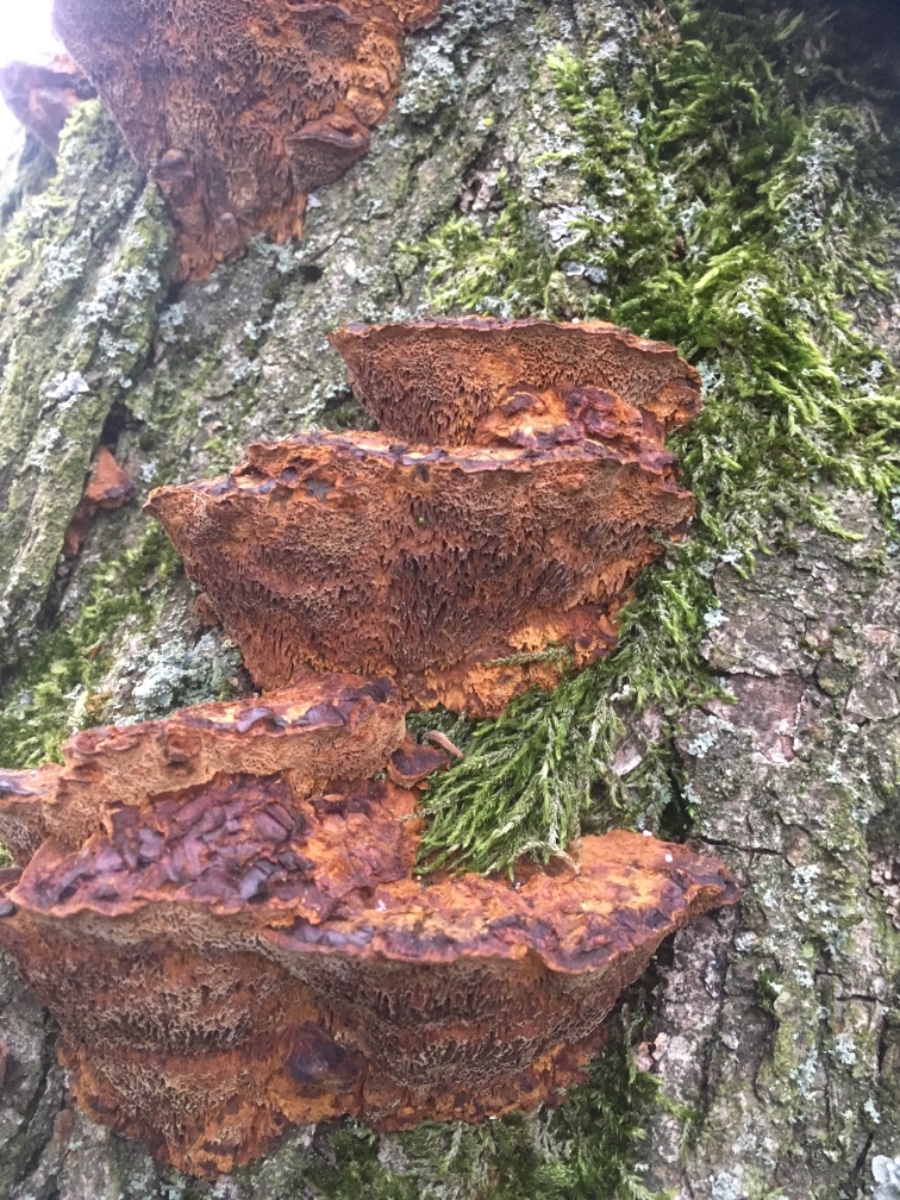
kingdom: Fungi
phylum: Basidiomycota
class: Agaricomycetes
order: Hymenochaetales
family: Hymenochaetaceae
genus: Xanthoporia
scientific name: Xanthoporia radiata
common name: elle-spejlporesvamp
